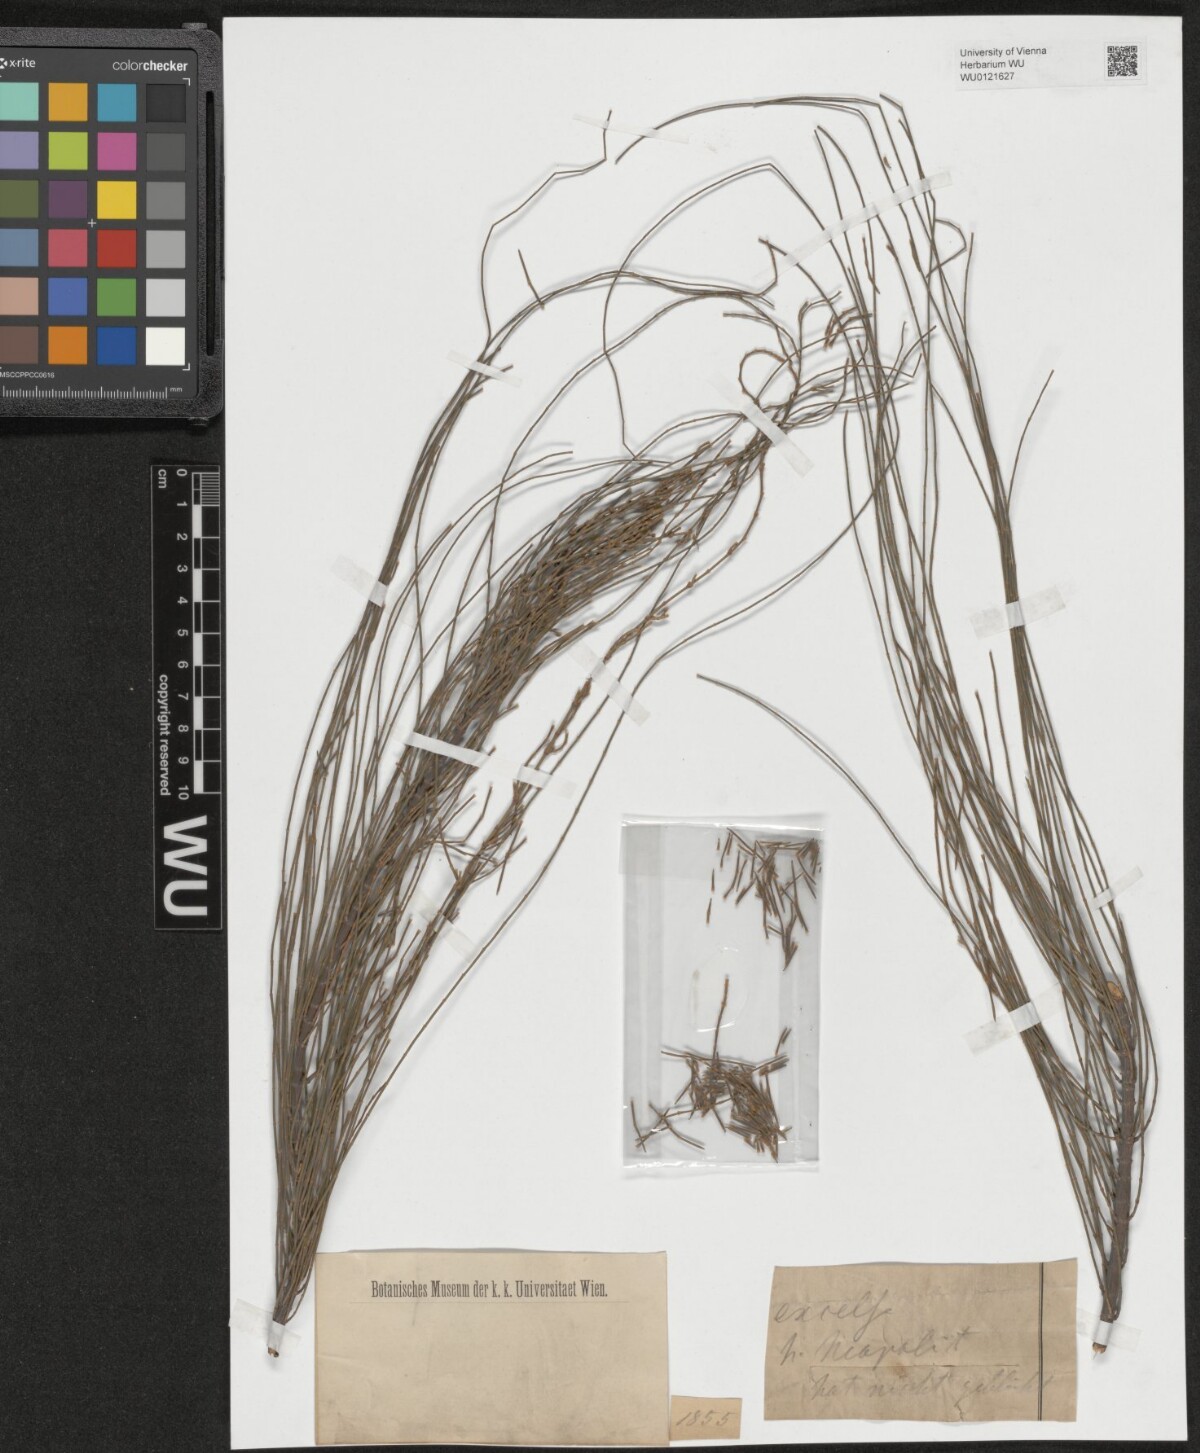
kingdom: Plantae
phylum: Tracheophyta
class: Magnoliopsida
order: Fagales
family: Casuarinaceae
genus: Casuarina
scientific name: Casuarina equisetifolia
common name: Beach sheoak
